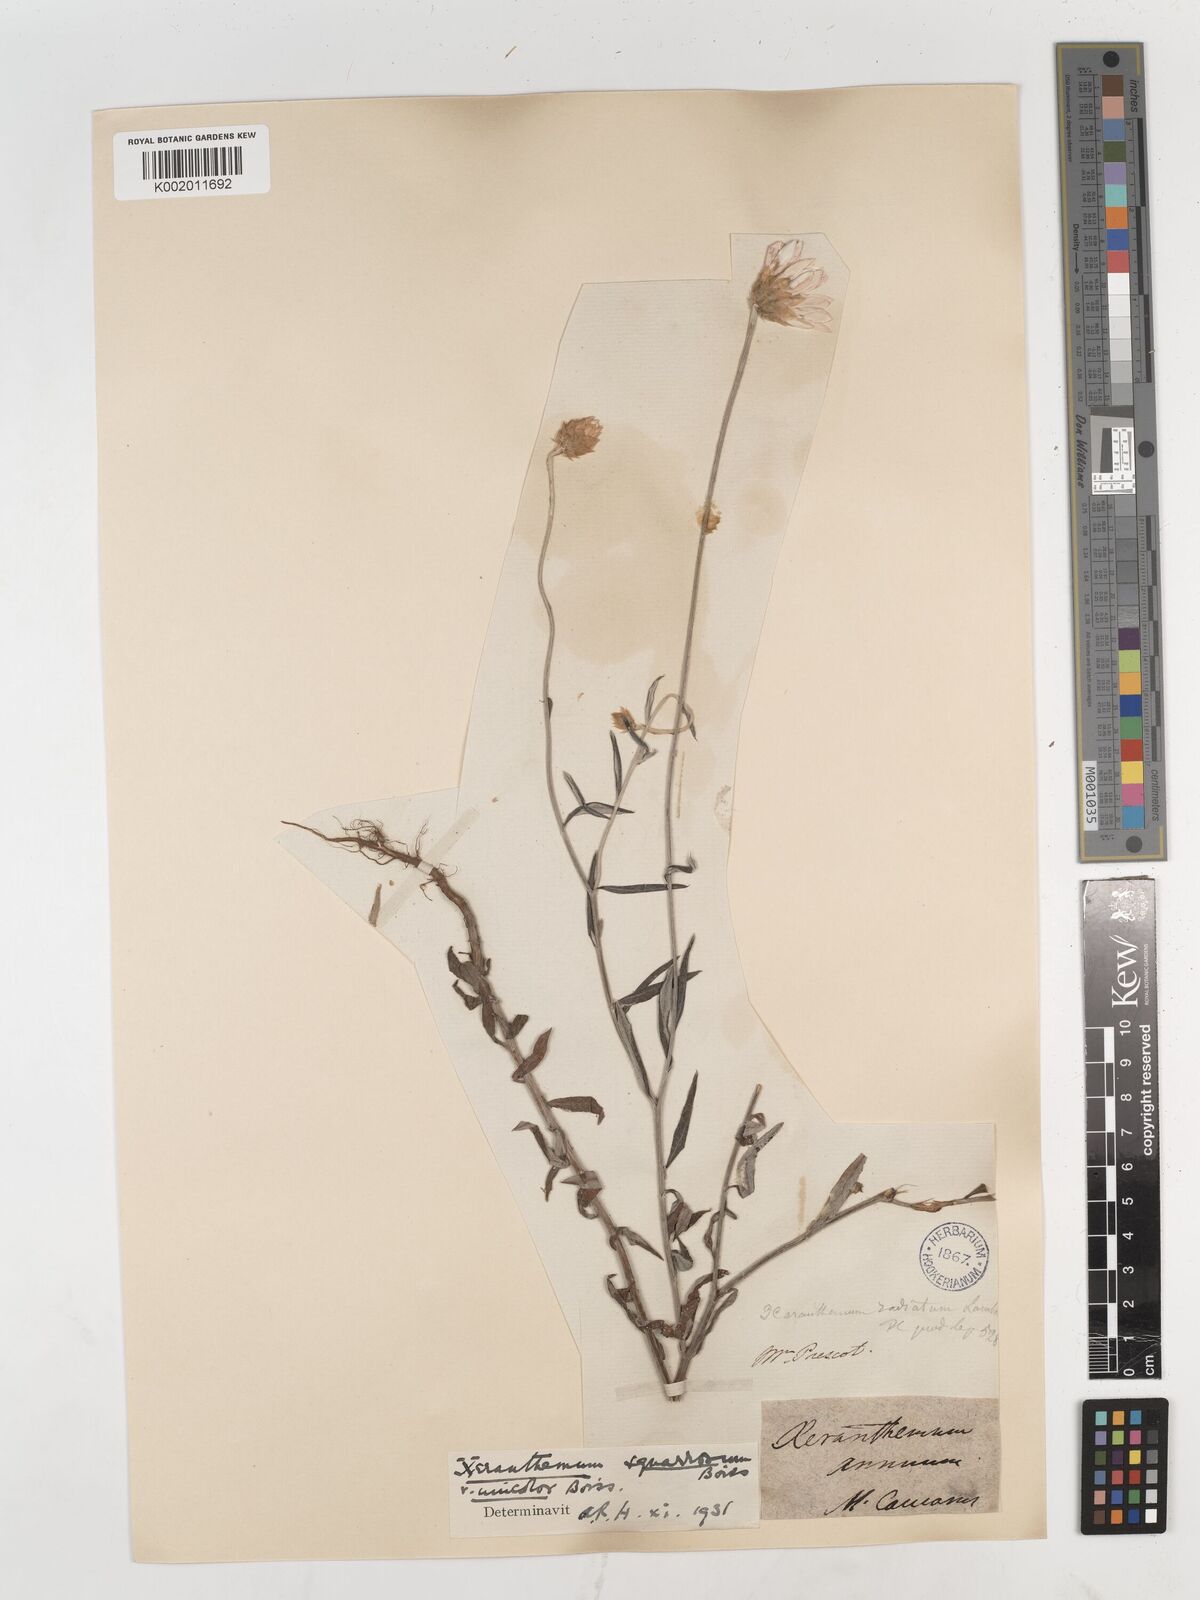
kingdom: Plantae
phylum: Tracheophyta
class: Magnoliopsida
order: Asterales
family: Asteraceae
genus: Xeranthemum
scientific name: Xeranthemum squarrosum
